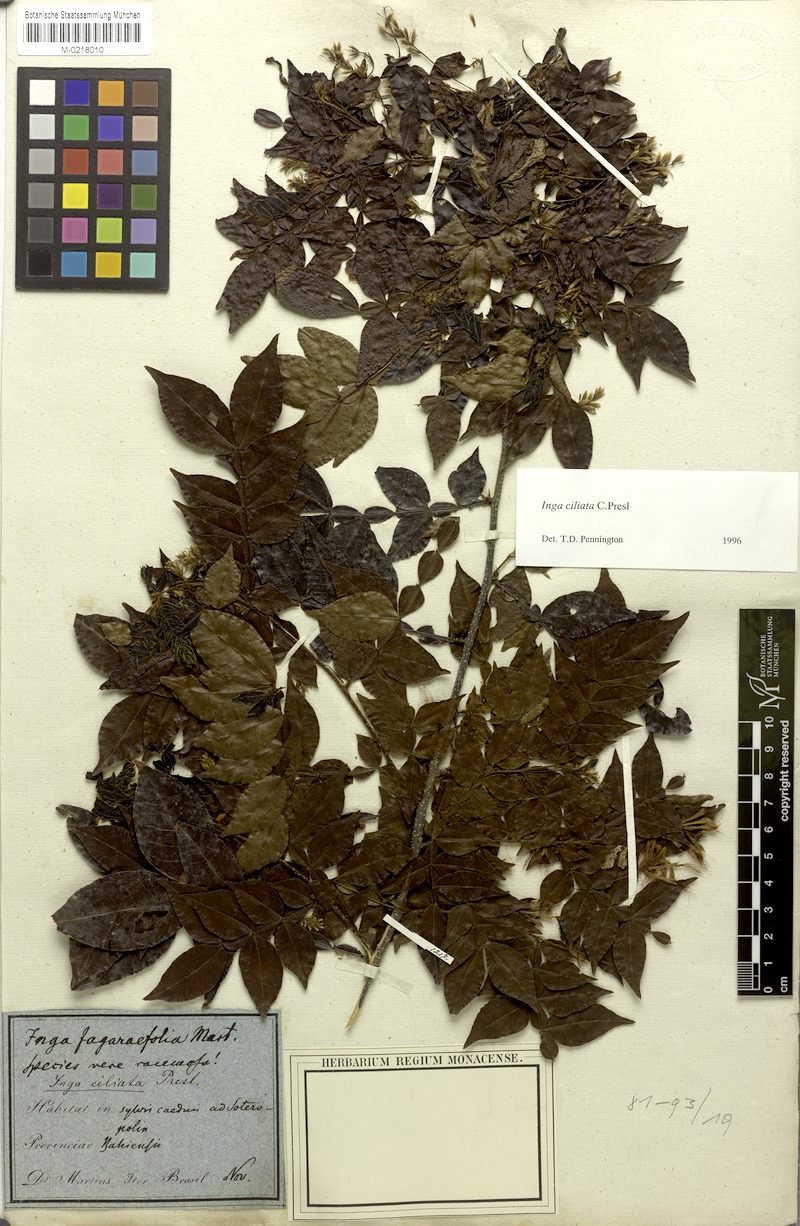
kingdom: Plantae
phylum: Tracheophyta
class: Magnoliopsida
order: Fabales
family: Fabaceae
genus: Inga
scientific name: Inga ciliata
